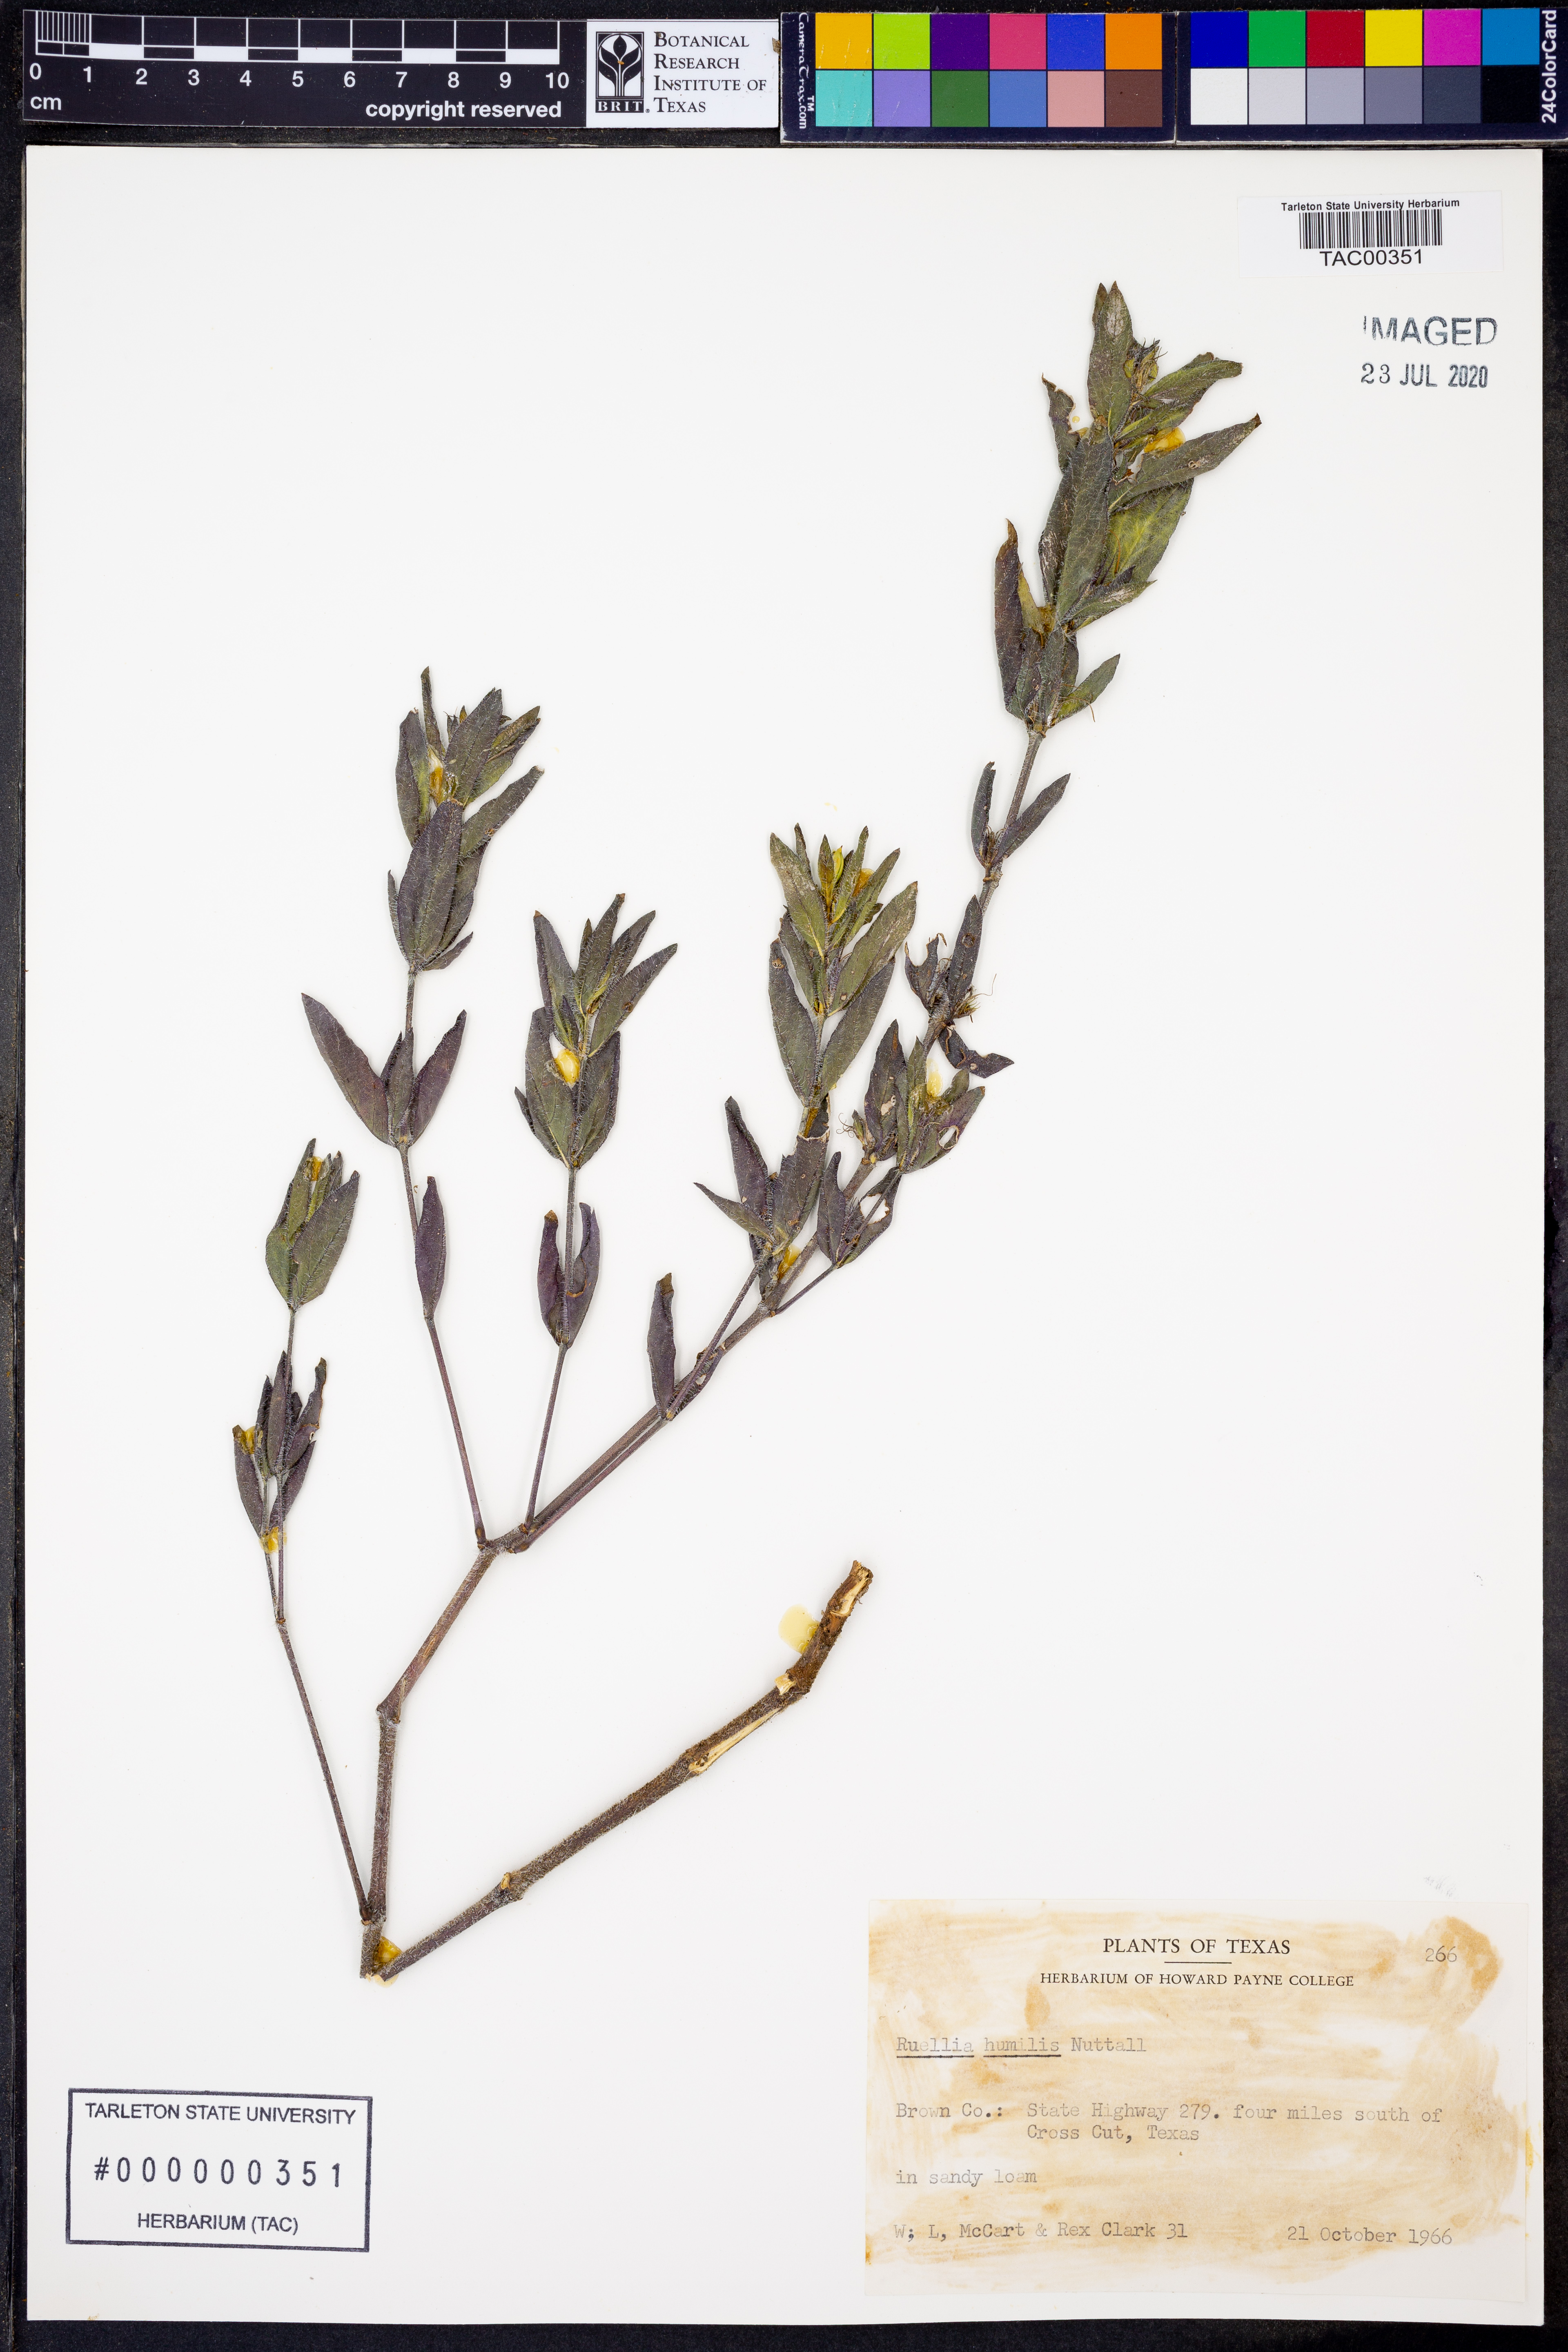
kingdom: Plantae
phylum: Tracheophyta
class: Magnoliopsida
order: Lamiales
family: Acanthaceae
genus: Ruellia
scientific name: Ruellia humilis
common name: Fringe-leaf ruellia
